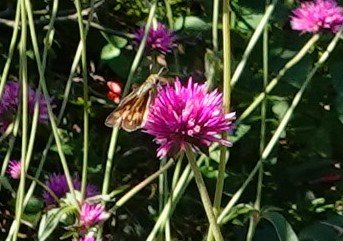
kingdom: Animalia
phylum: Arthropoda
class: Insecta
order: Lepidoptera
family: Hesperiidae
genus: Hylephila
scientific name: Hylephila phyleus
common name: Fiery Skipper
